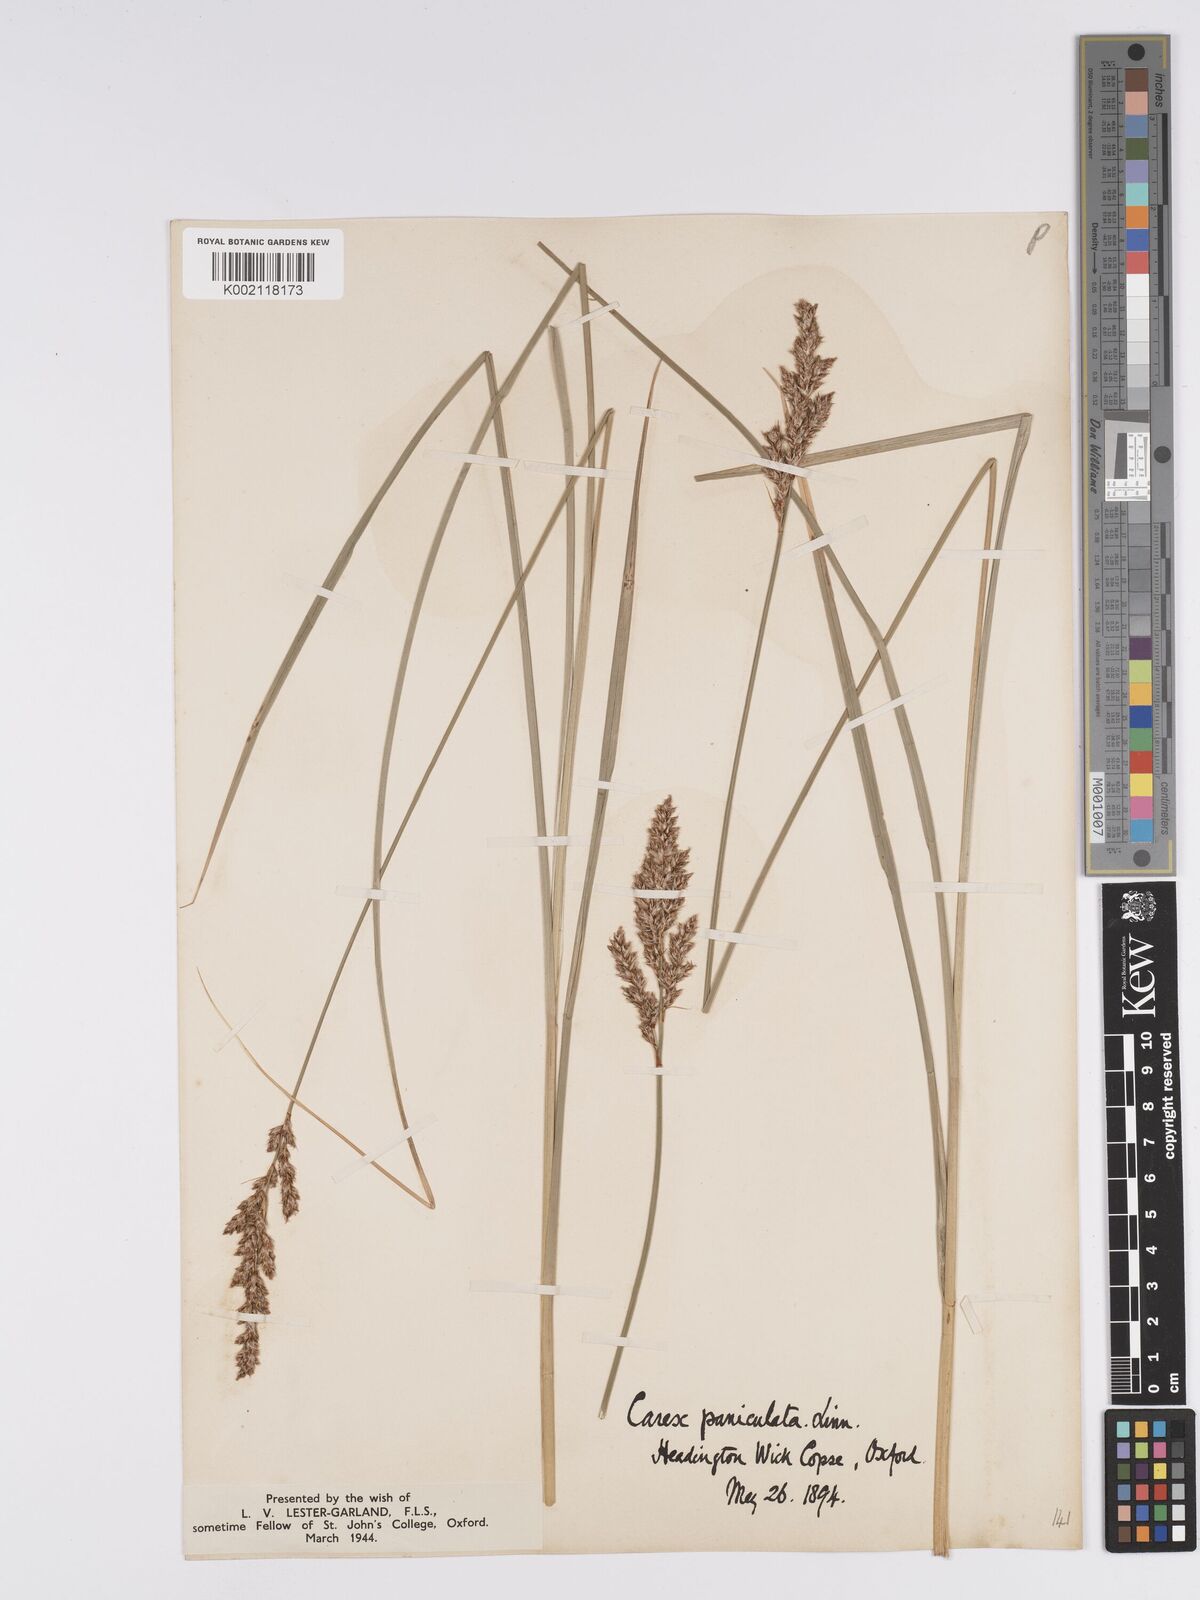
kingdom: Plantae
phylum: Tracheophyta
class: Liliopsida
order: Poales
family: Cyperaceae
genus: Carex
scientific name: Carex paniculata
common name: Greater tussock-sedge
